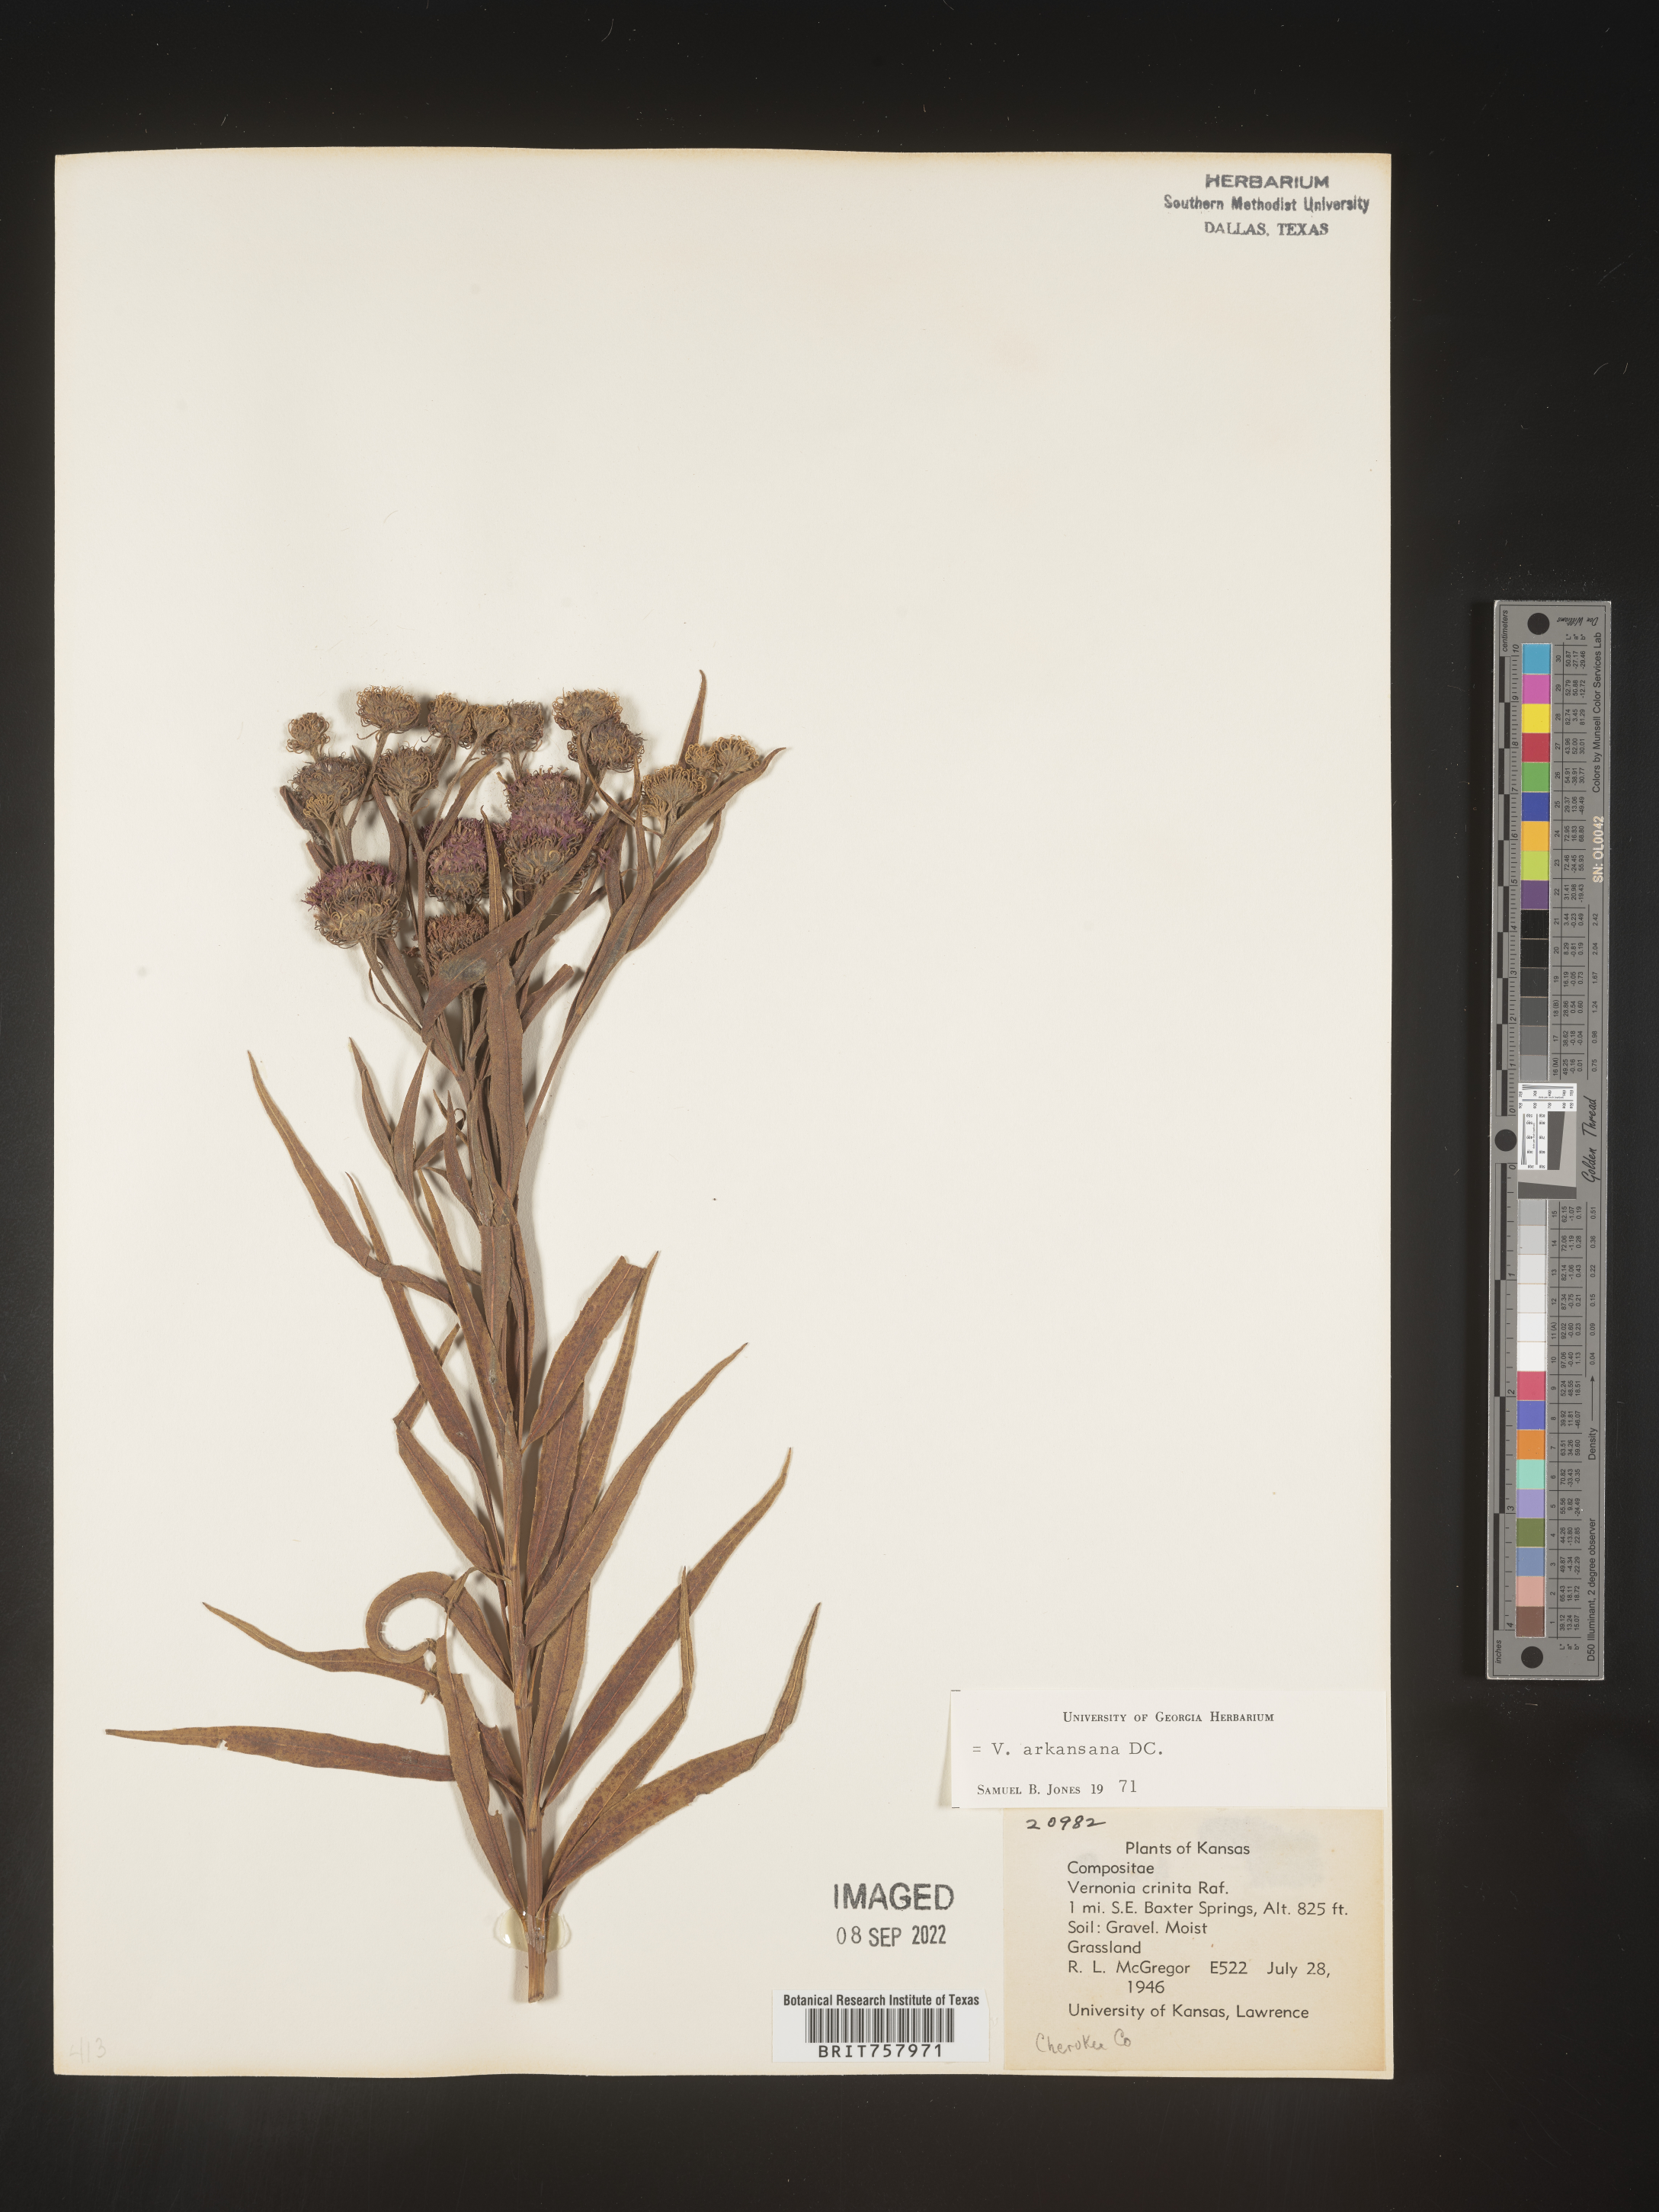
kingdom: Plantae
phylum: Tracheophyta
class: Magnoliopsida
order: Asterales
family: Asteraceae
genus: Vernonia
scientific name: Vernonia arkansana
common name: Ozark ironweed
